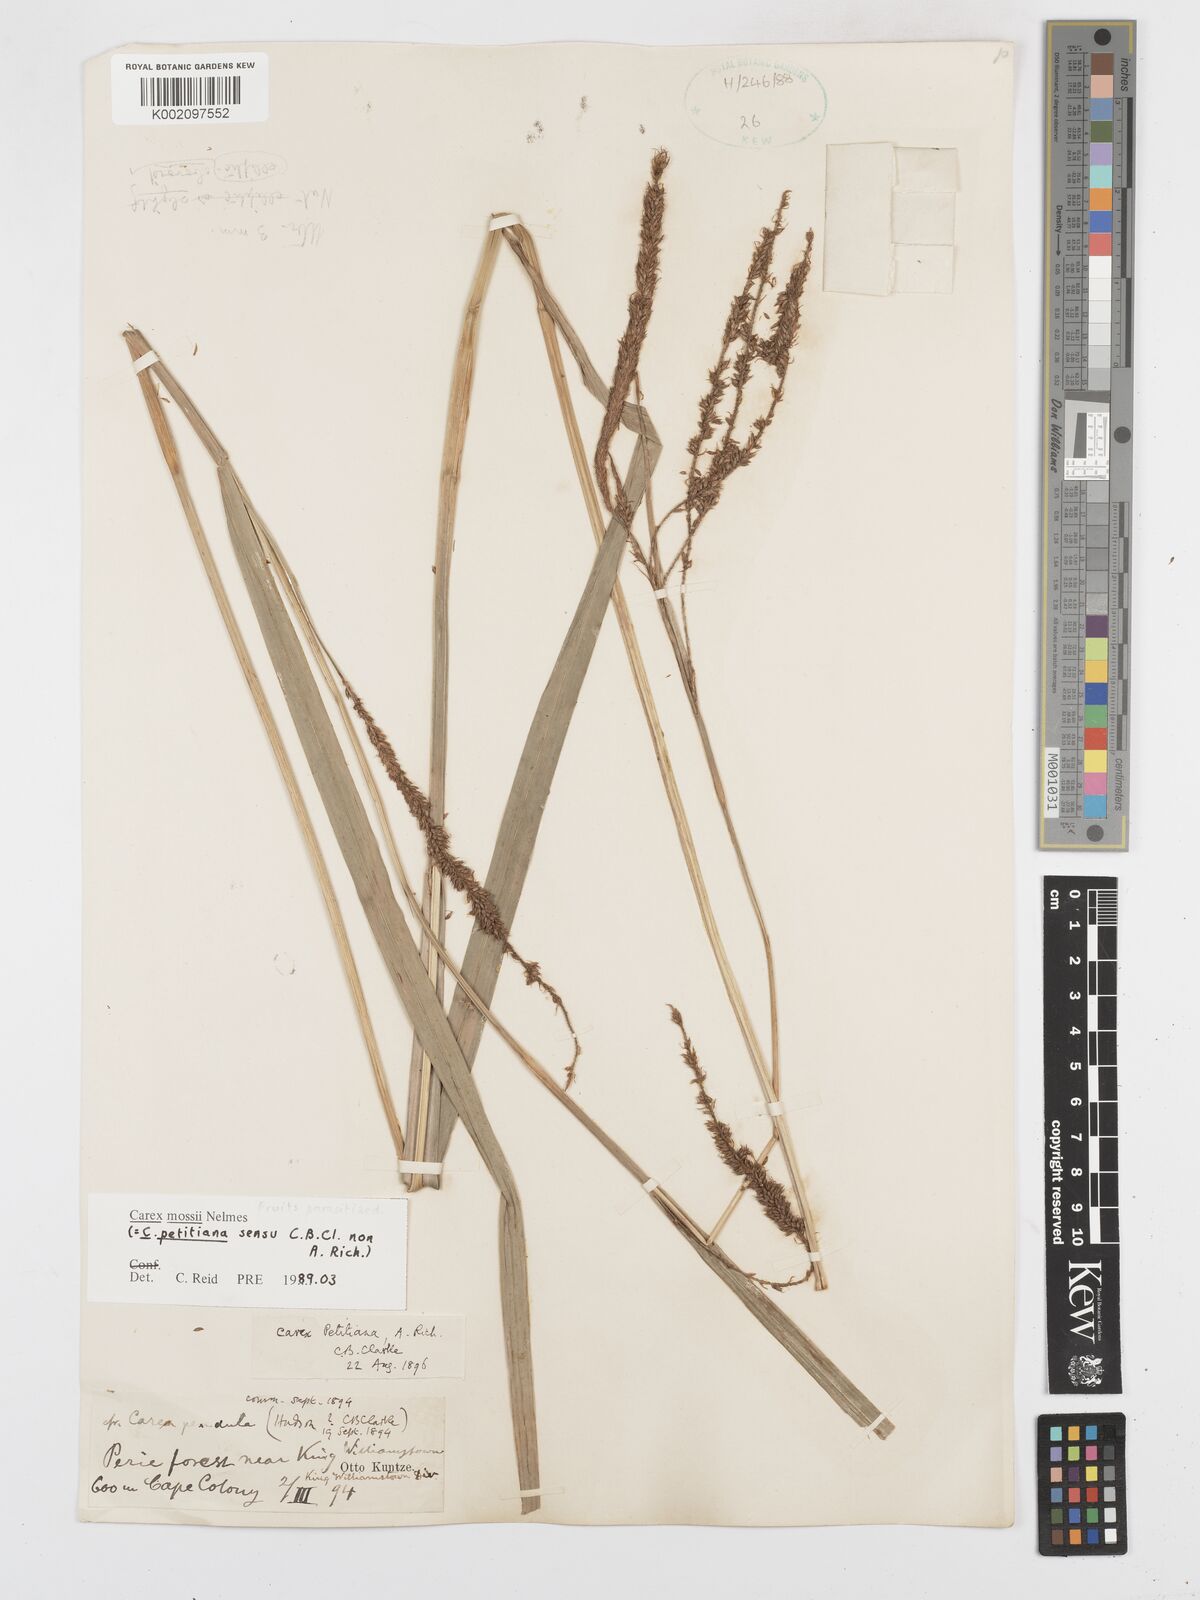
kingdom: Plantae
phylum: Tracheophyta
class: Liliopsida
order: Poales
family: Cyperaceae
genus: Carex
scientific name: Carex petitiana
